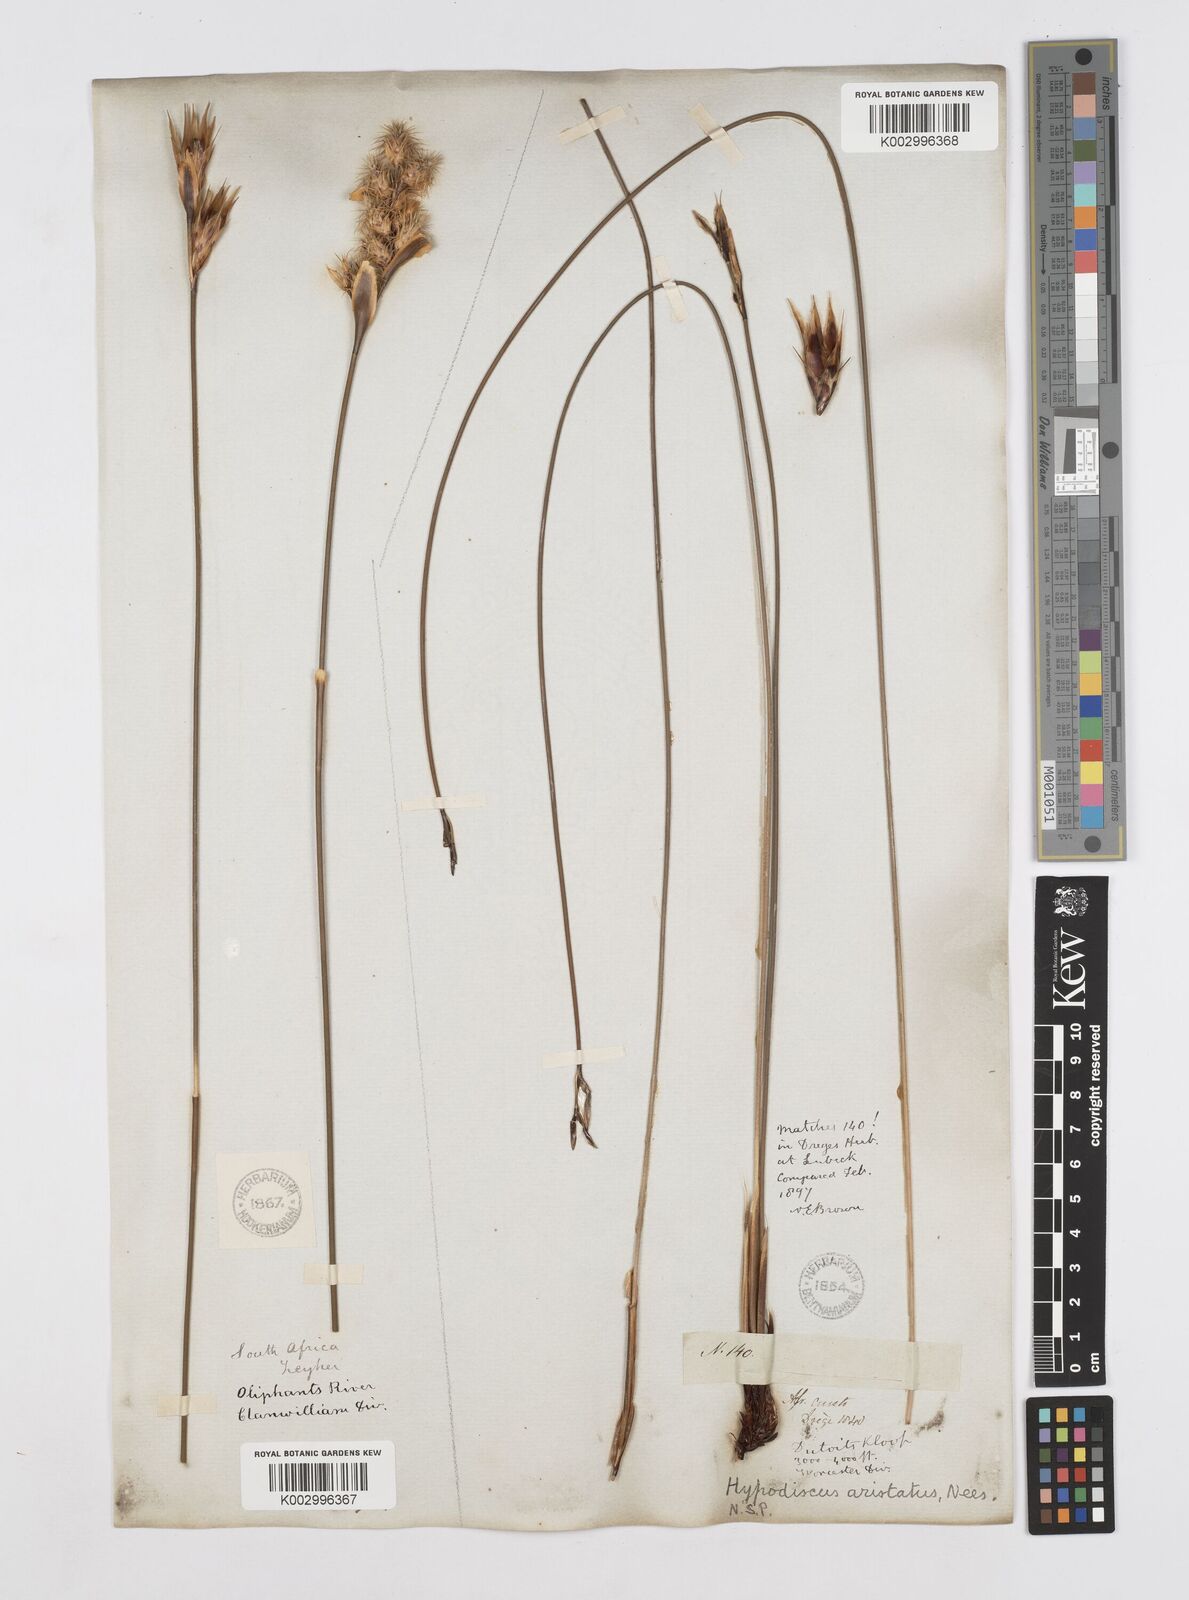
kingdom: Plantae
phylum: Tracheophyta
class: Liliopsida
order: Poales
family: Restionaceae
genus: Hypodiscus
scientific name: Hypodiscus aristatus
